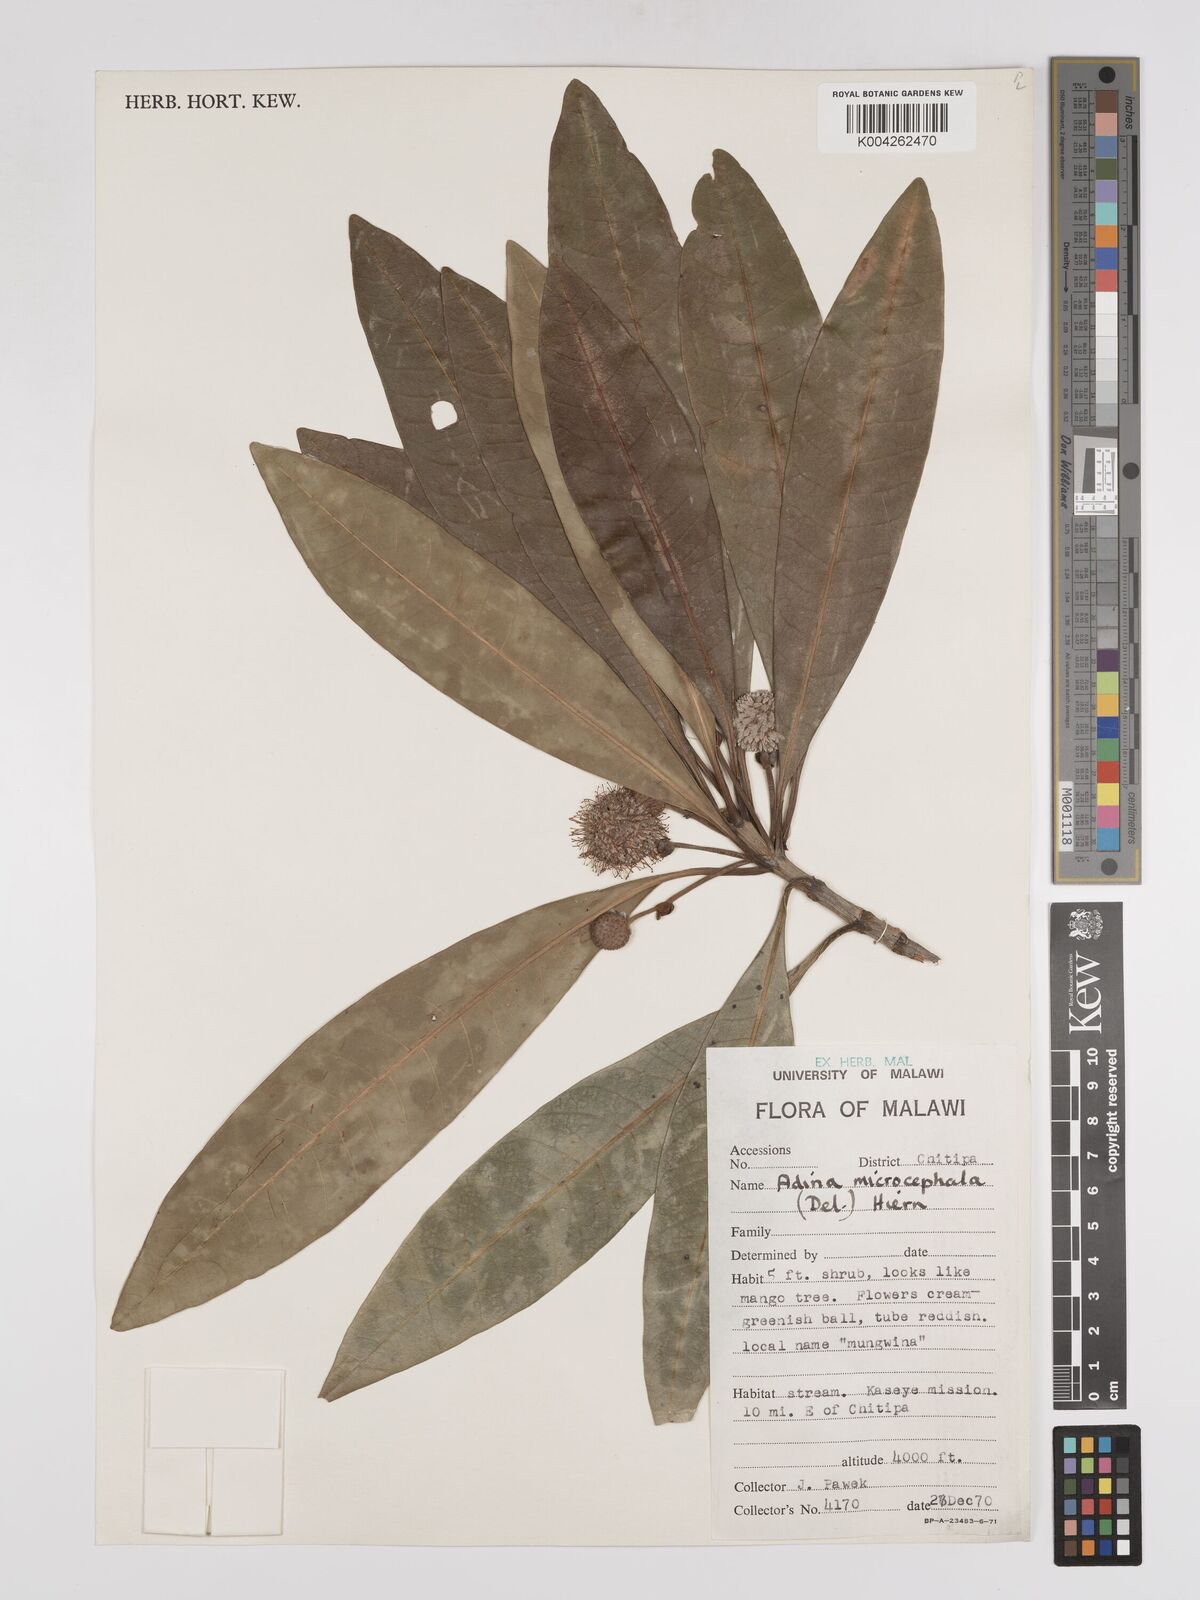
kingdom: Plantae
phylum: Tracheophyta
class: Magnoliopsida
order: Gentianales
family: Rubiaceae
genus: Breonadia
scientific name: Breonadia salicina
